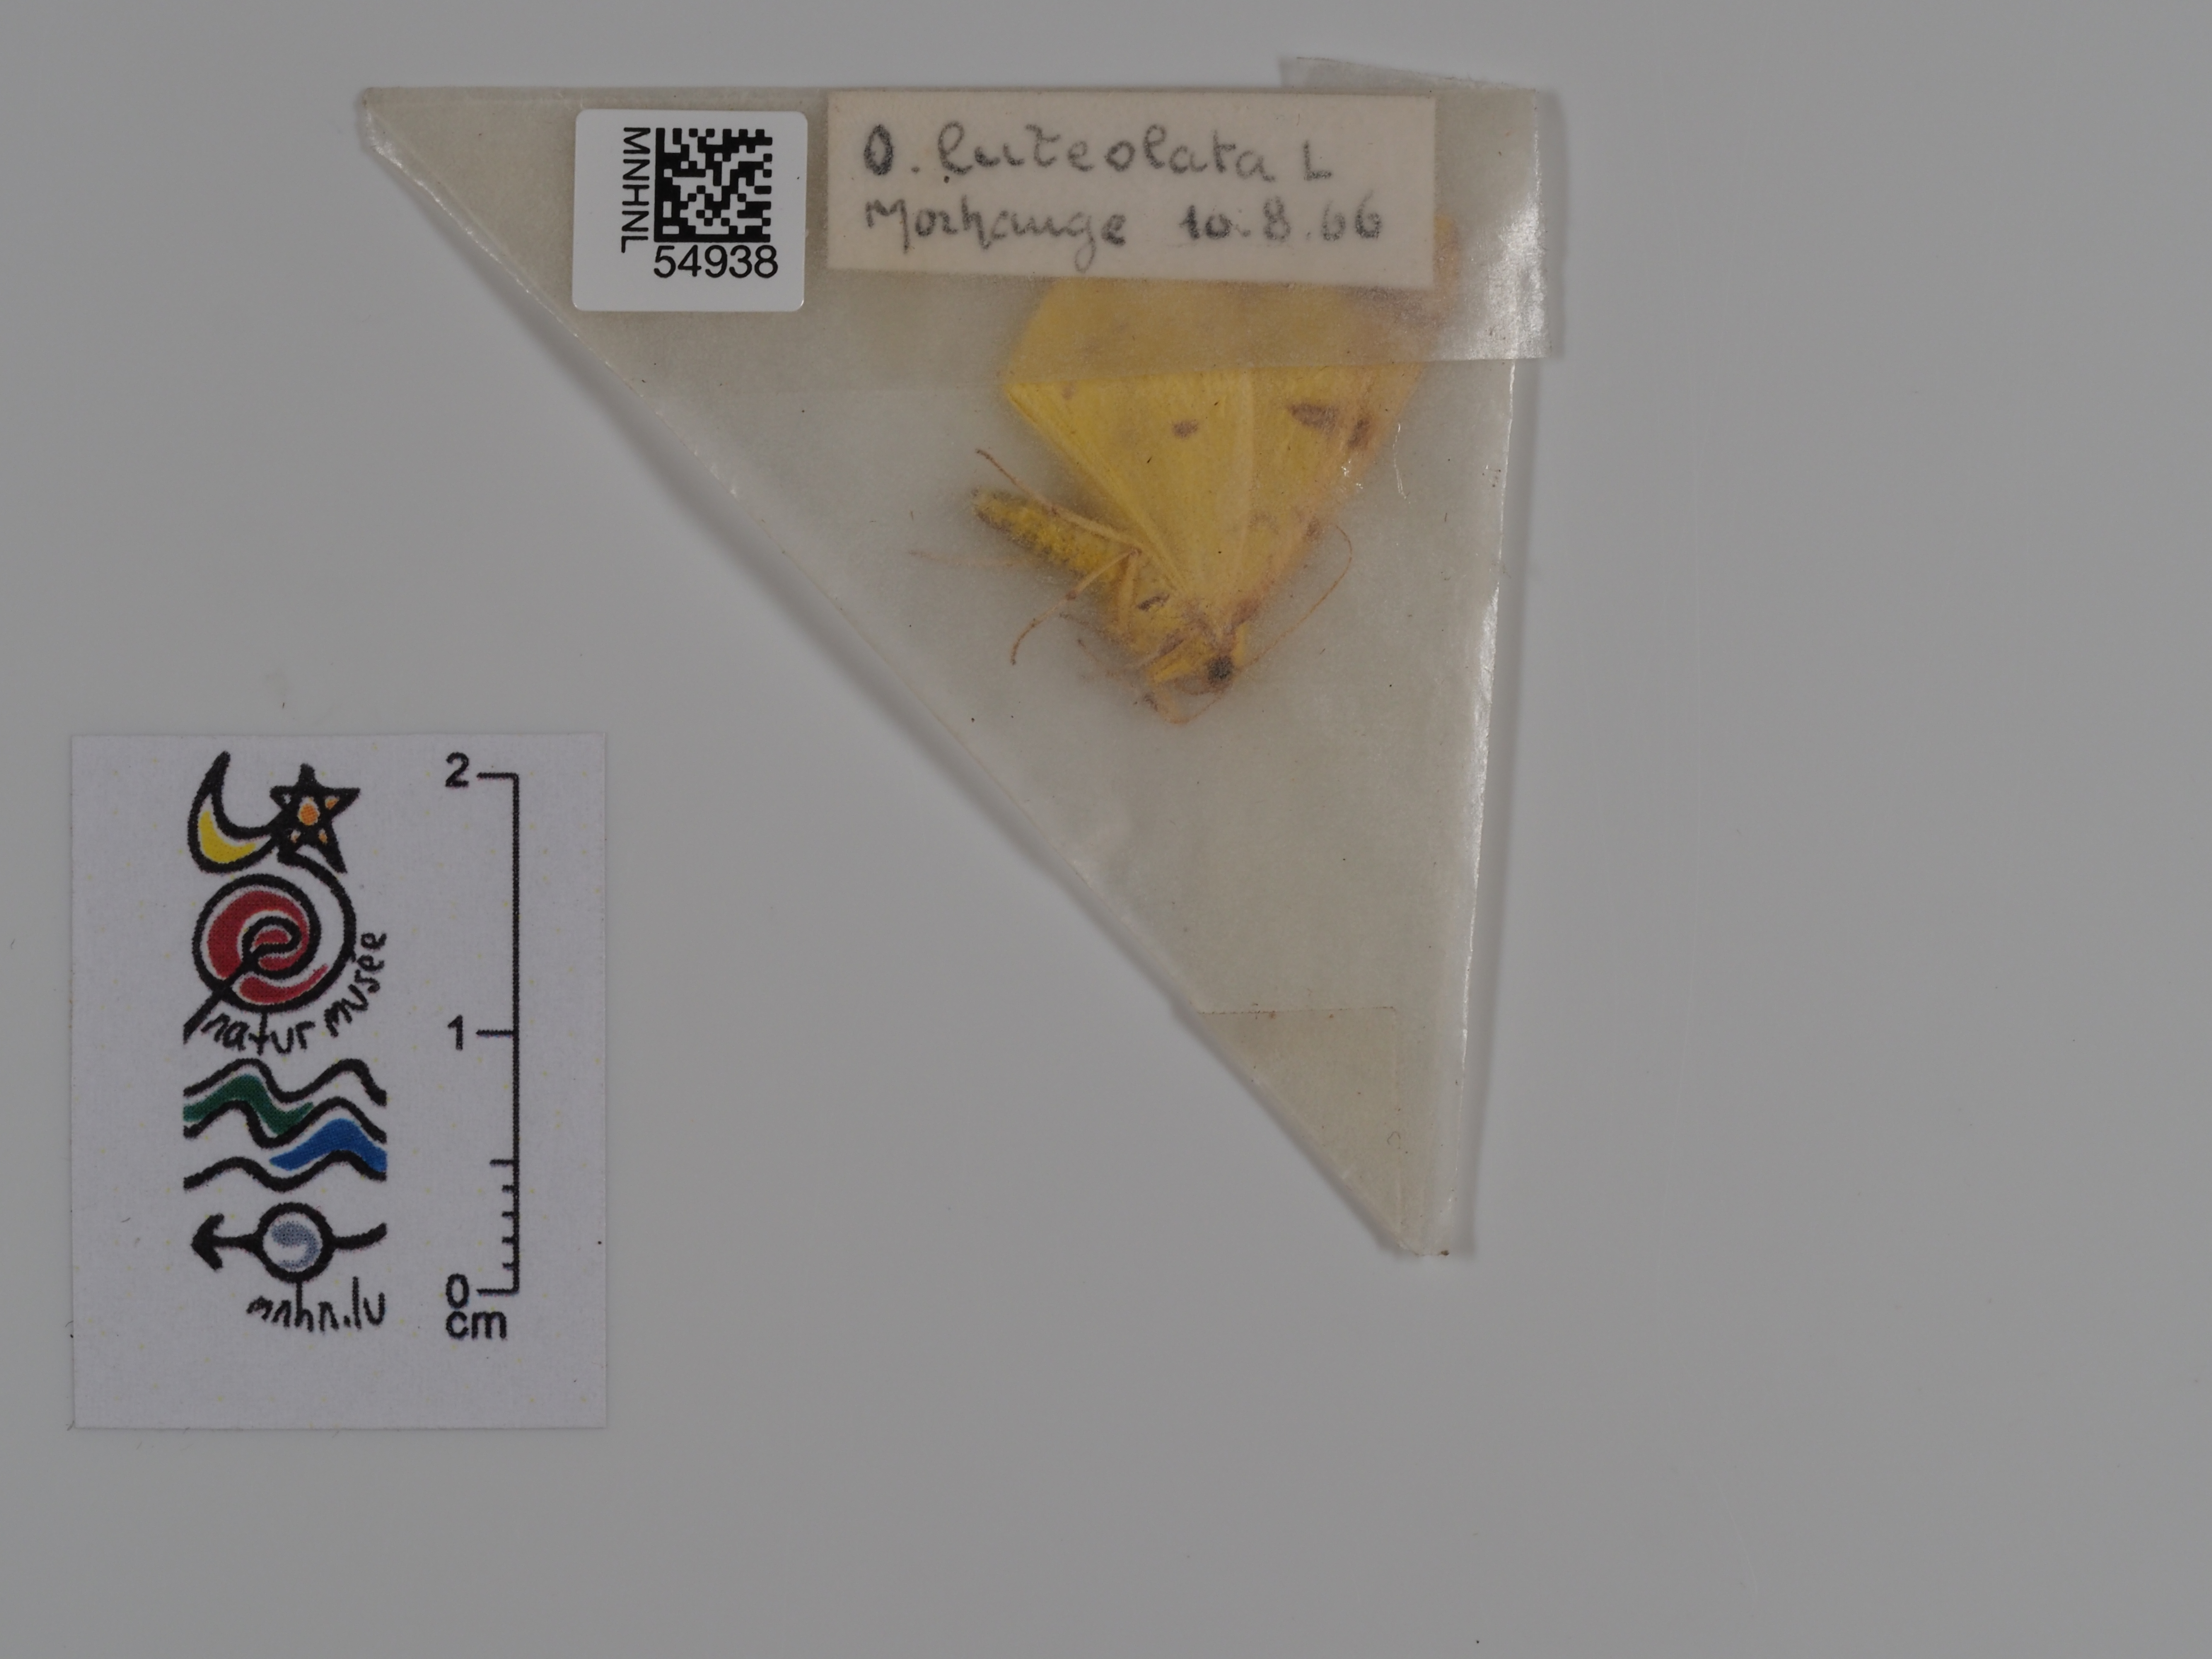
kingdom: Animalia
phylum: Arthropoda
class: Insecta
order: Lepidoptera
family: Geometridae
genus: Opisthograptis
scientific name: Opisthograptis luteolata
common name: Brimstone moth
